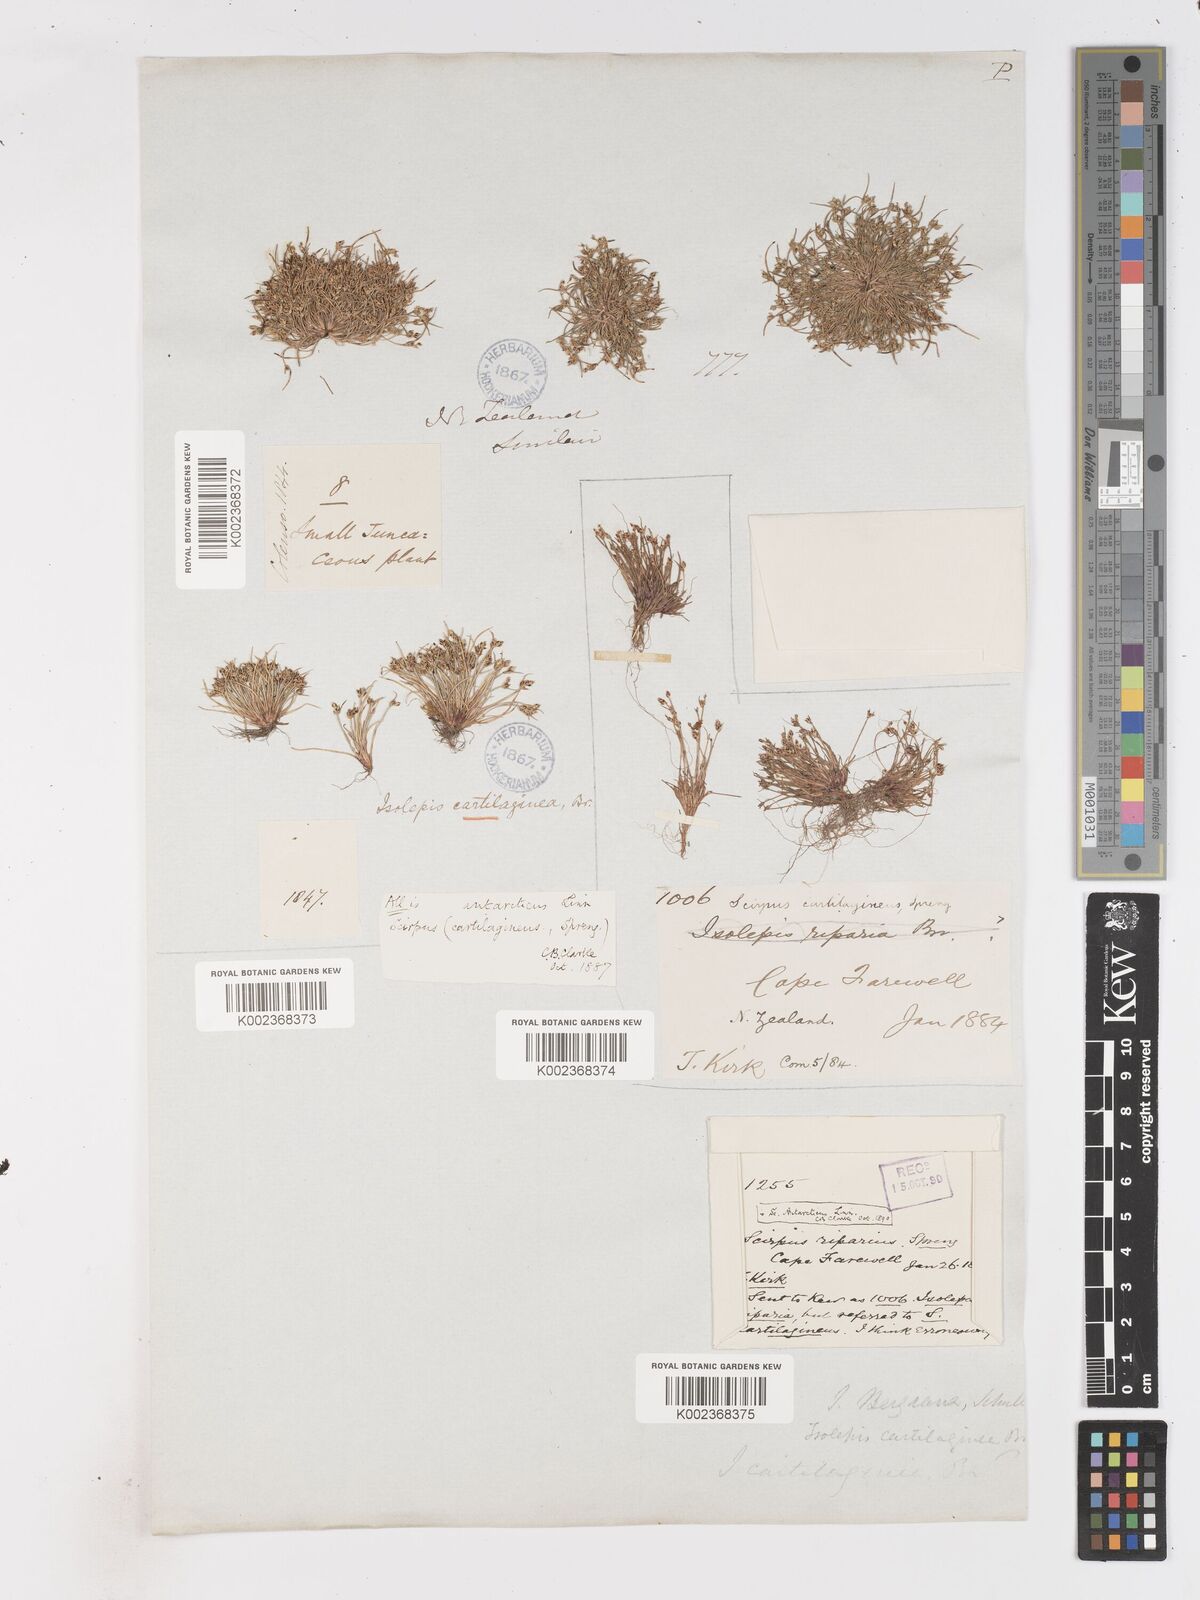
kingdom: Plantae
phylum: Tracheophyta
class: Liliopsida
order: Poales
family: Cyperaceae
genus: Isolepis
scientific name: Isolepis marginata
